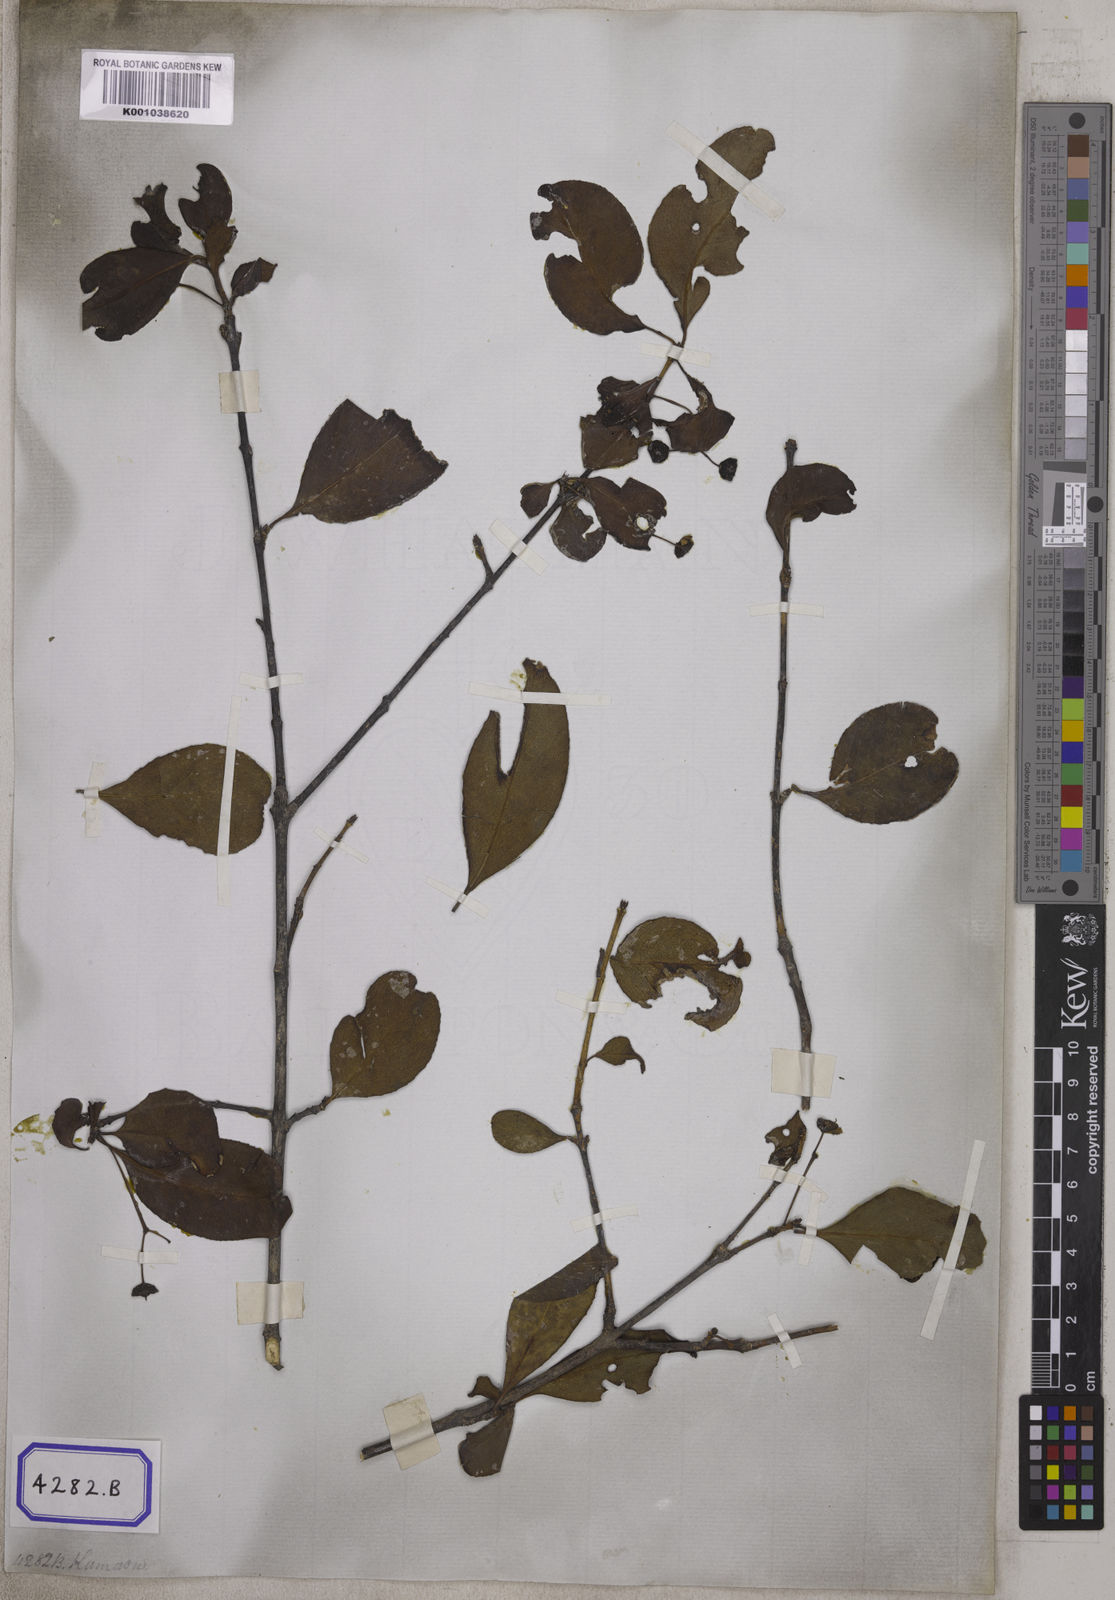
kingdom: Plantae
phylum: Tracheophyta
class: Magnoliopsida
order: Celastrales
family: Celastraceae
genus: Euonymus
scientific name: Euonymus grandiflorus
